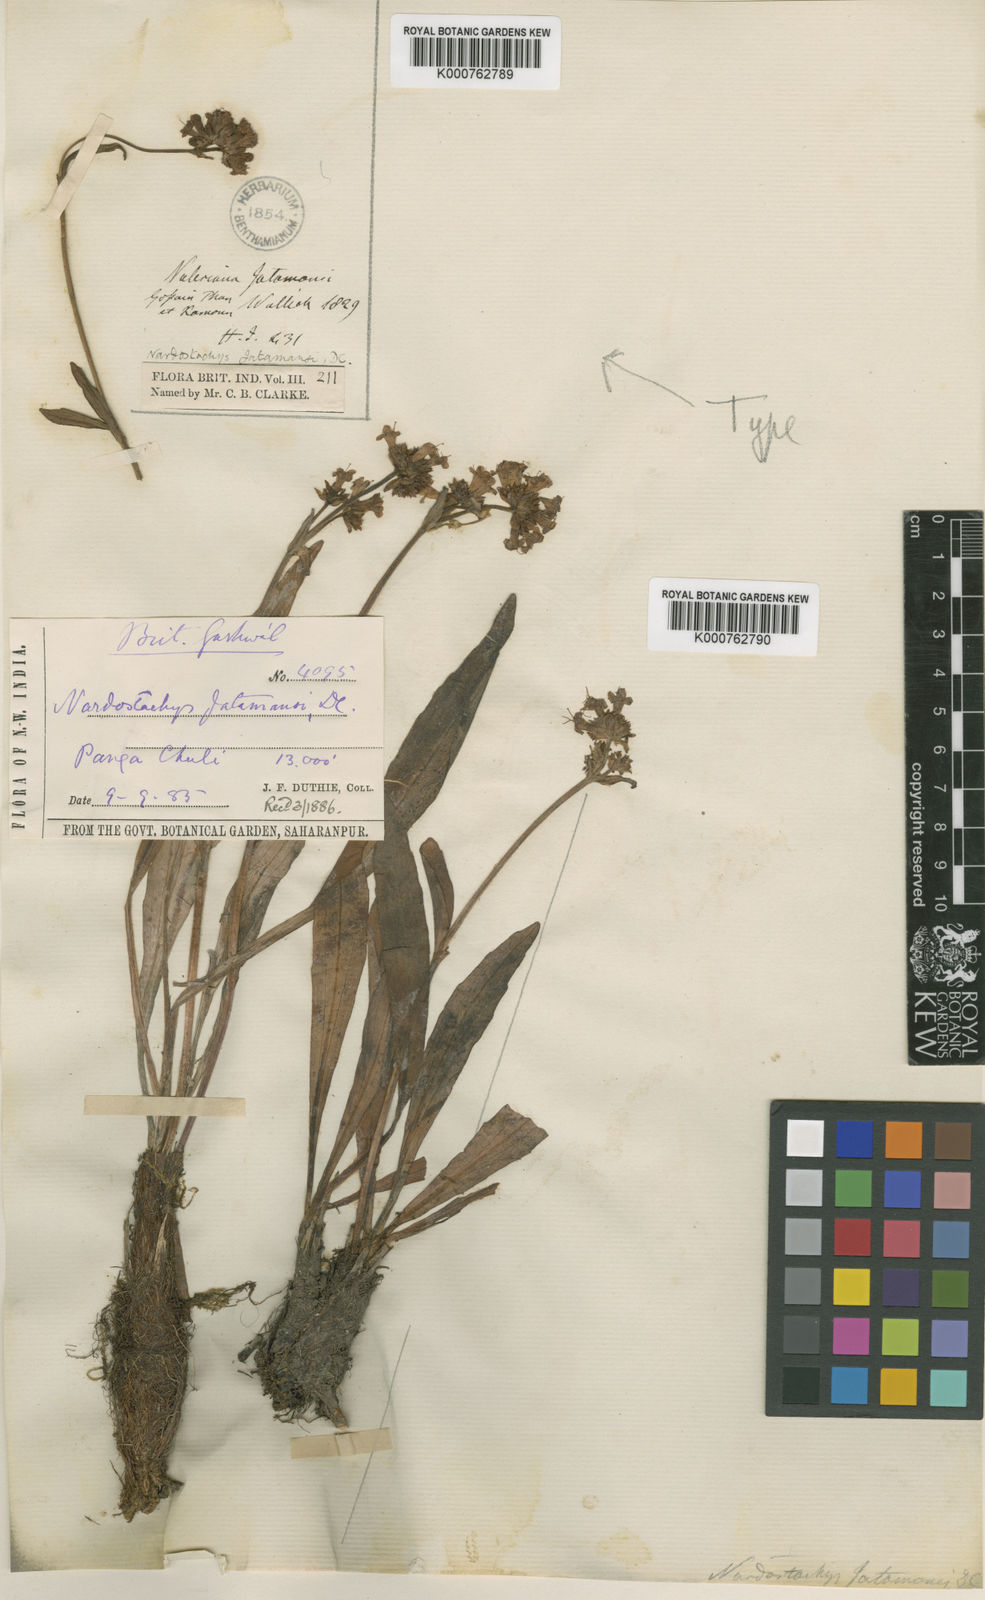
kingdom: Plantae
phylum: Tracheophyta
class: Magnoliopsida
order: Dipsacales
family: Caprifoliaceae
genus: Nardostachys
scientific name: Nardostachys jatamansi
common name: Indian nard
